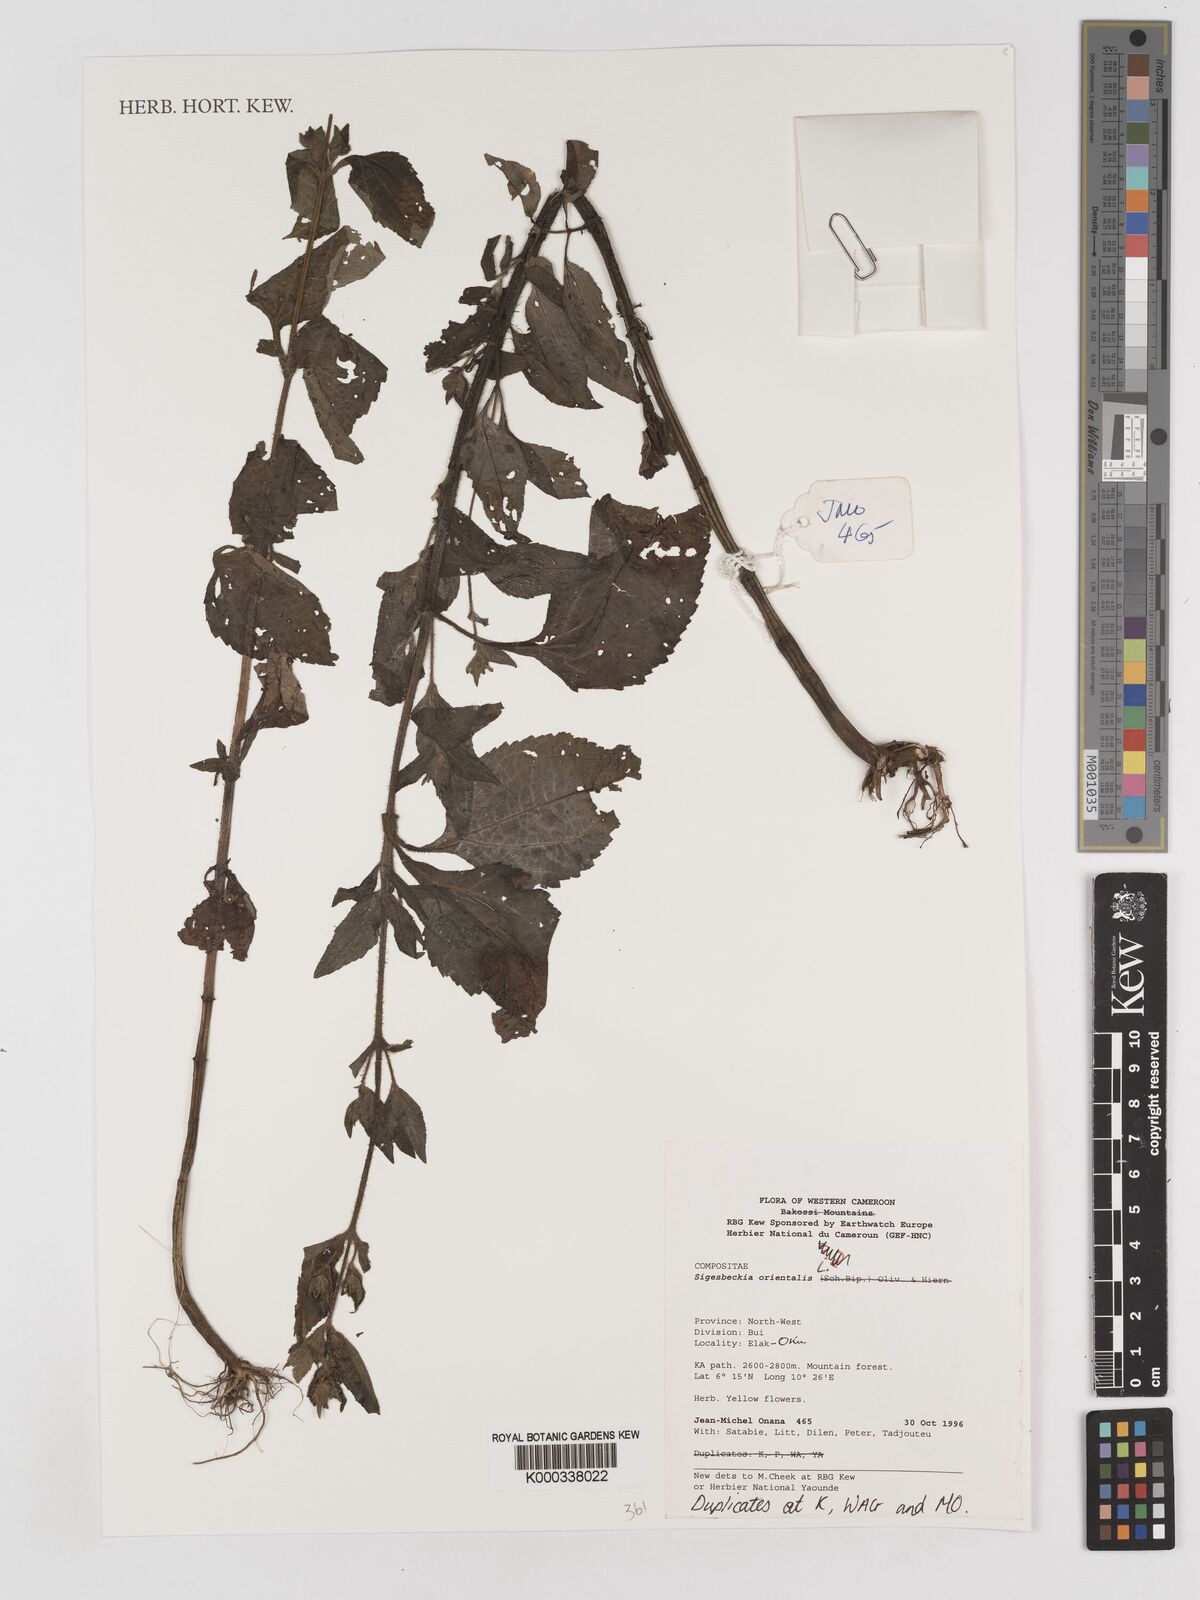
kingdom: Plantae
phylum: Tracheophyta
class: Magnoliopsida
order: Asterales
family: Asteraceae
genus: Sigesbeckia
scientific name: Sigesbeckia
